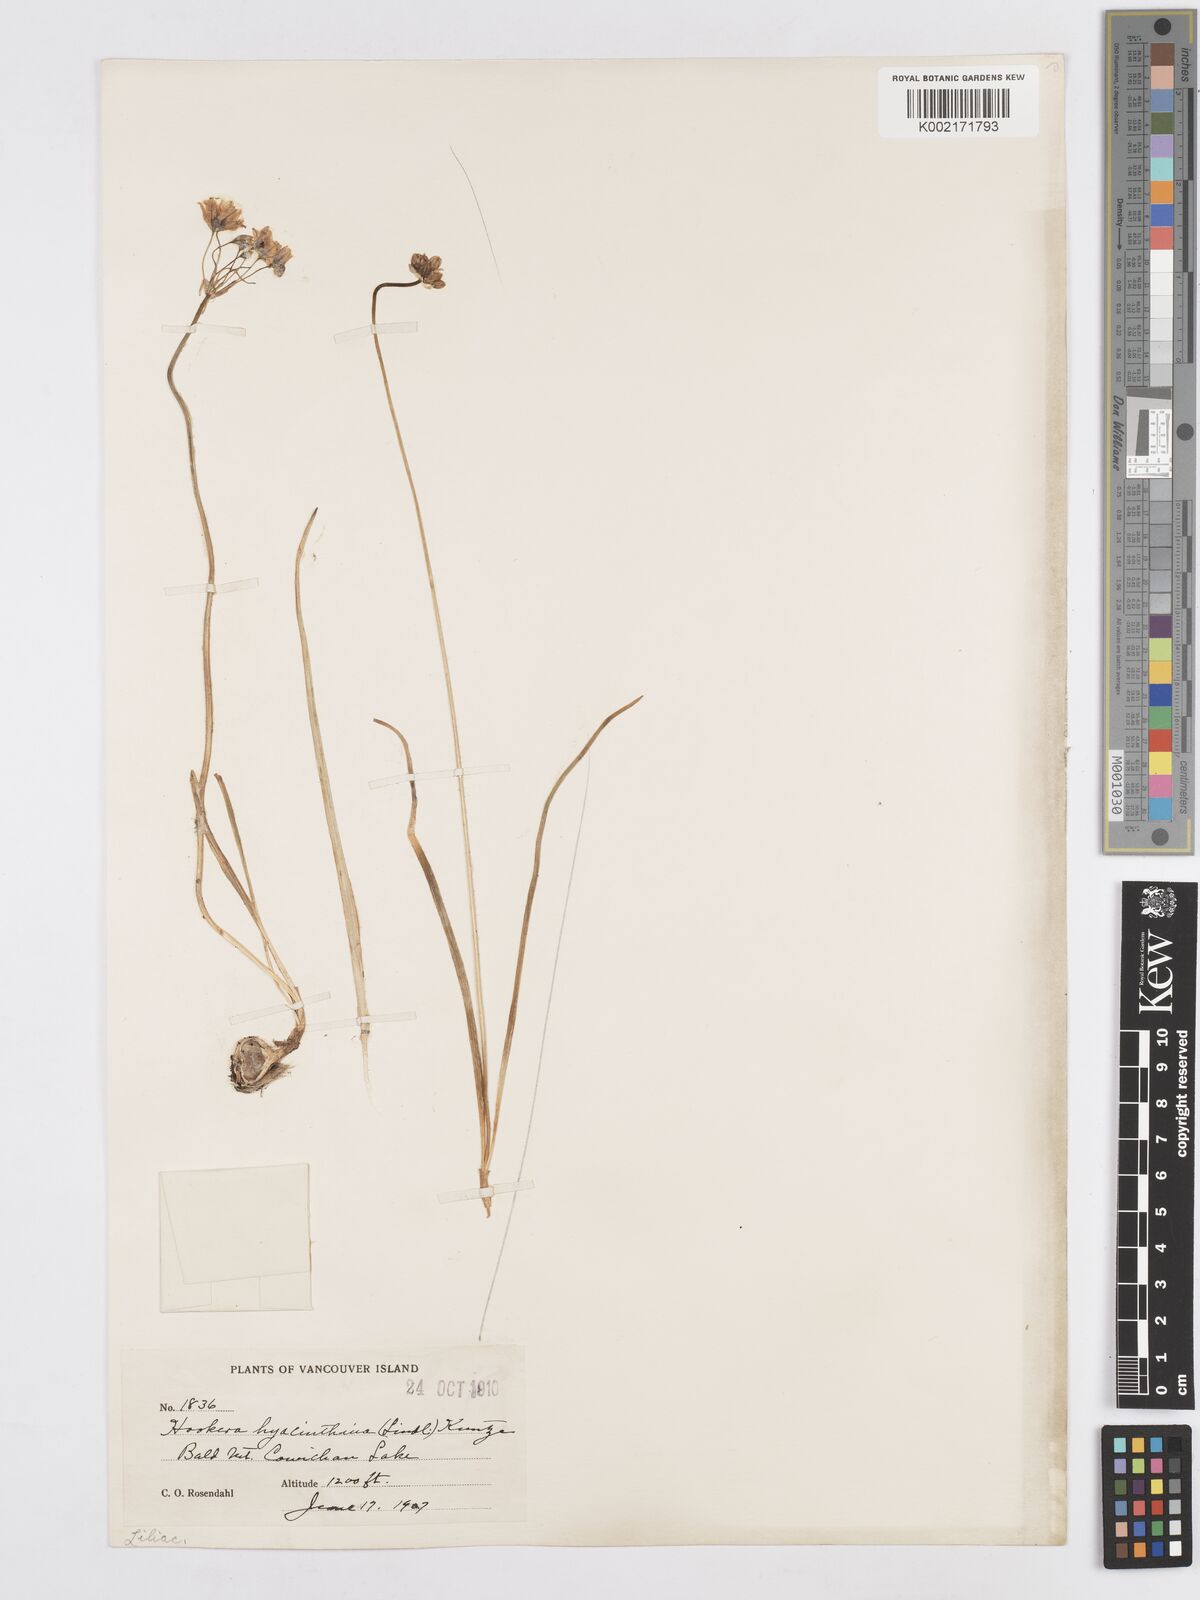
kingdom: Plantae
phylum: Tracheophyta
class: Liliopsida
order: Asparagales
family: Asparagaceae
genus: Triteleia
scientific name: Triteleia hyacinthina
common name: White brodiaea
